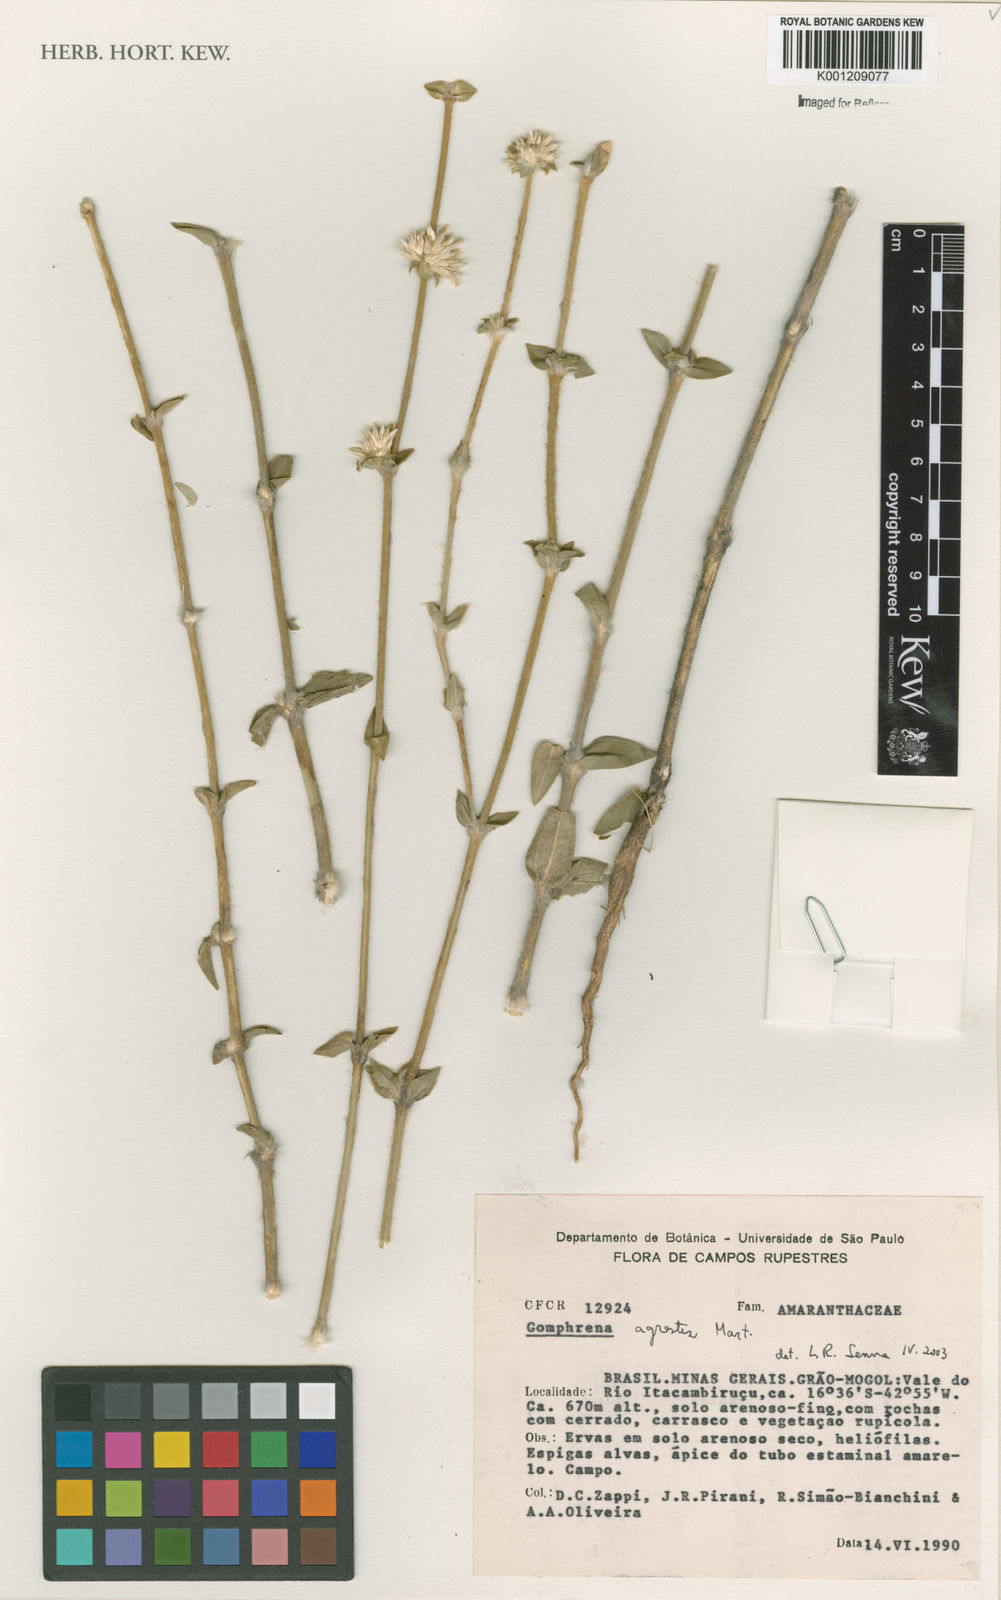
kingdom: Plantae
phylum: Tracheophyta
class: Magnoliopsida
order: Caryophyllales
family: Amaranthaceae
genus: Gomphrena
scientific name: Gomphrena agrestis
